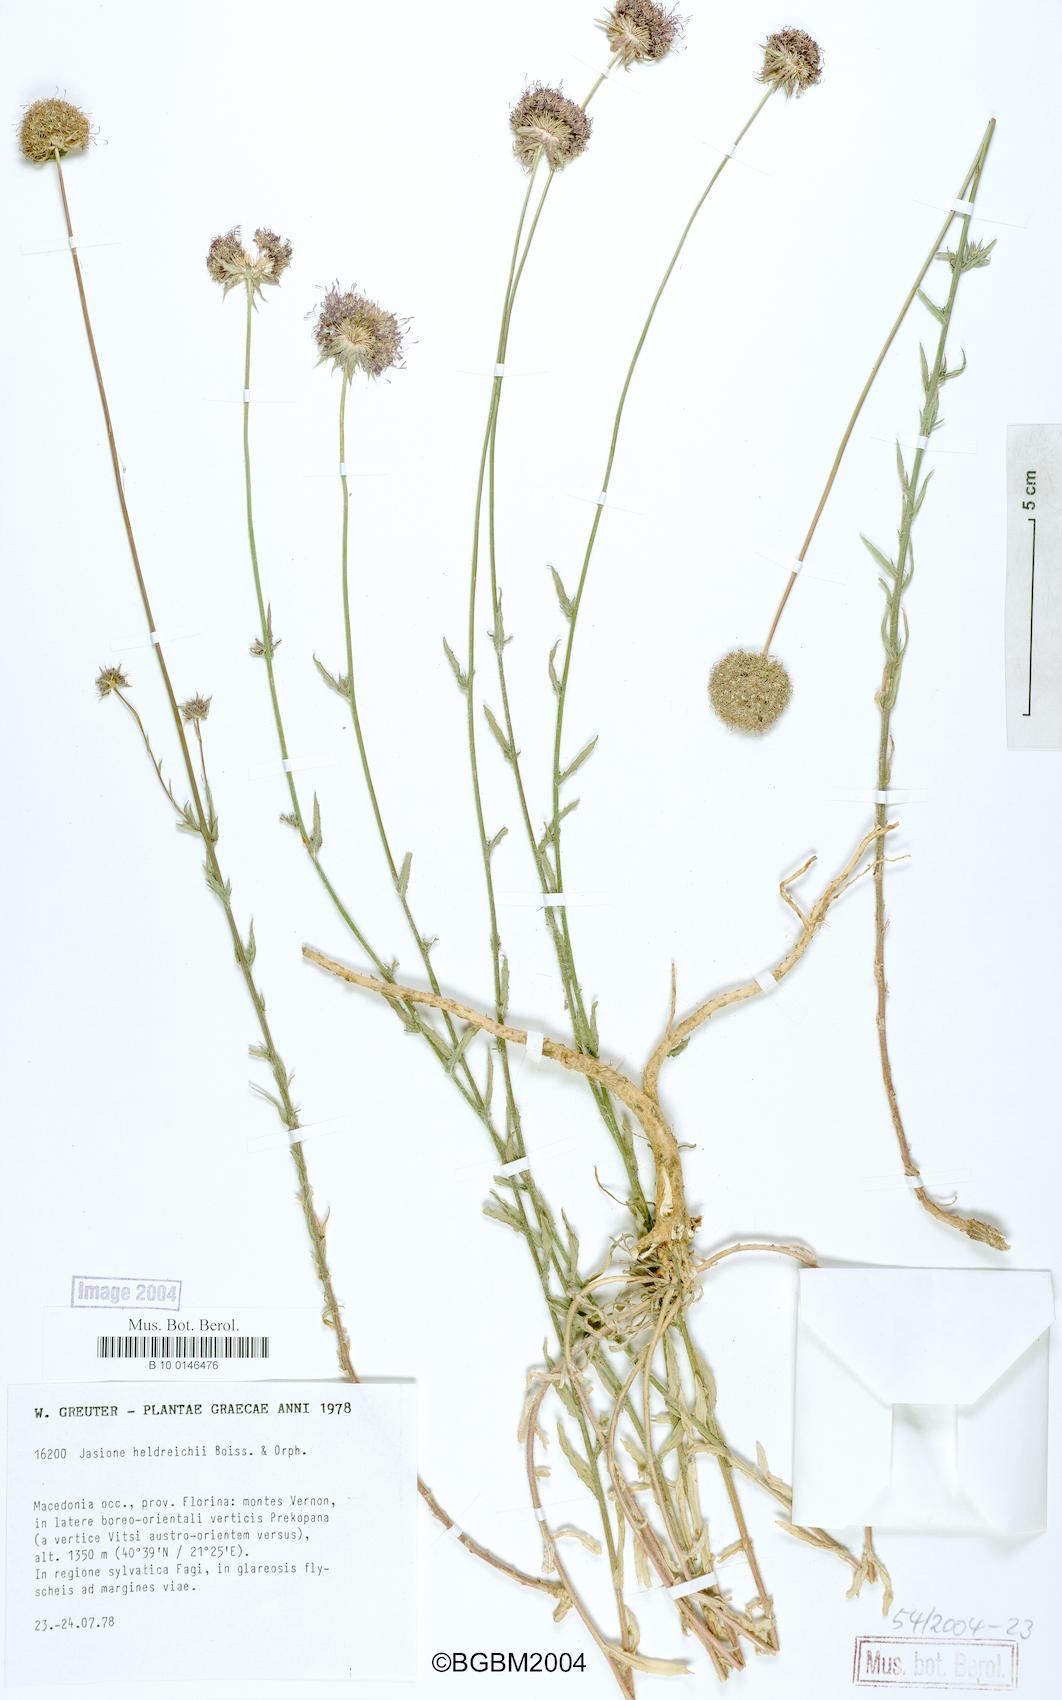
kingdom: Plantae
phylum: Tracheophyta
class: Magnoliopsida
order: Asterales
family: Campanulaceae
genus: Jasione
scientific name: Jasione heldreichii
